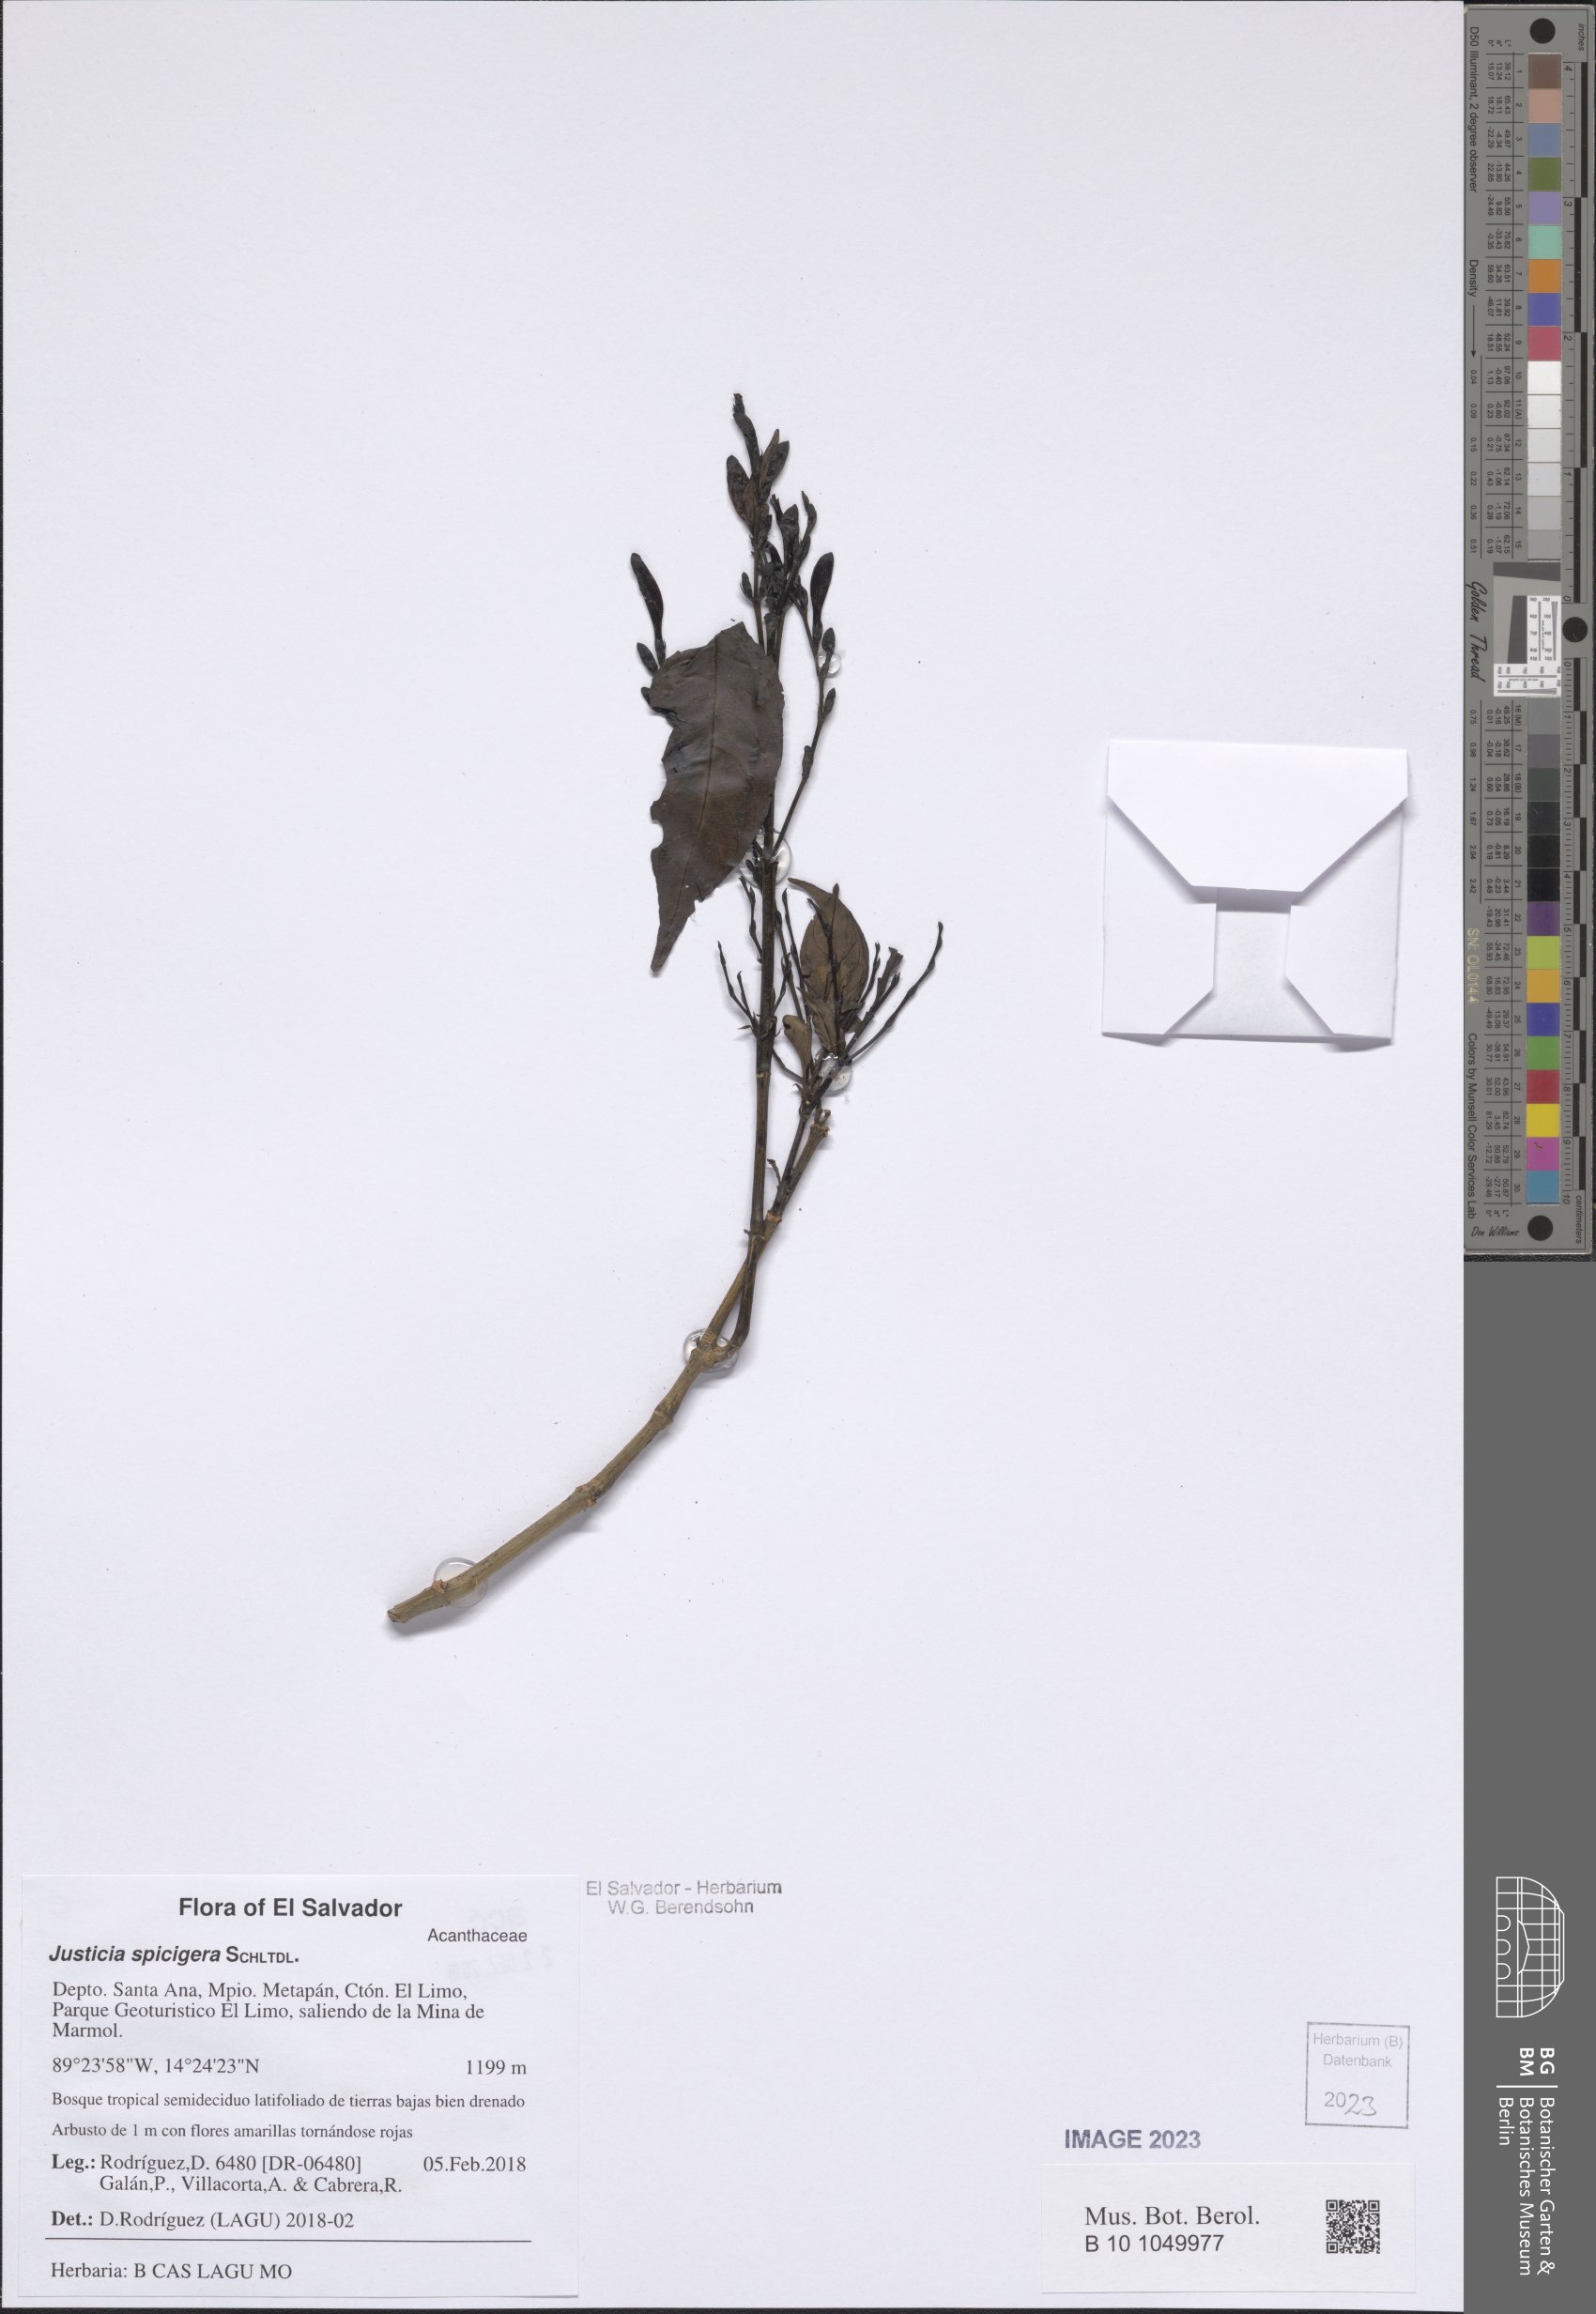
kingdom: Plantae
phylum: Tracheophyta
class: Magnoliopsida
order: Lamiales
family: Acanthaceae
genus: Justicia
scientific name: Justicia spicigera
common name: Mohintli
